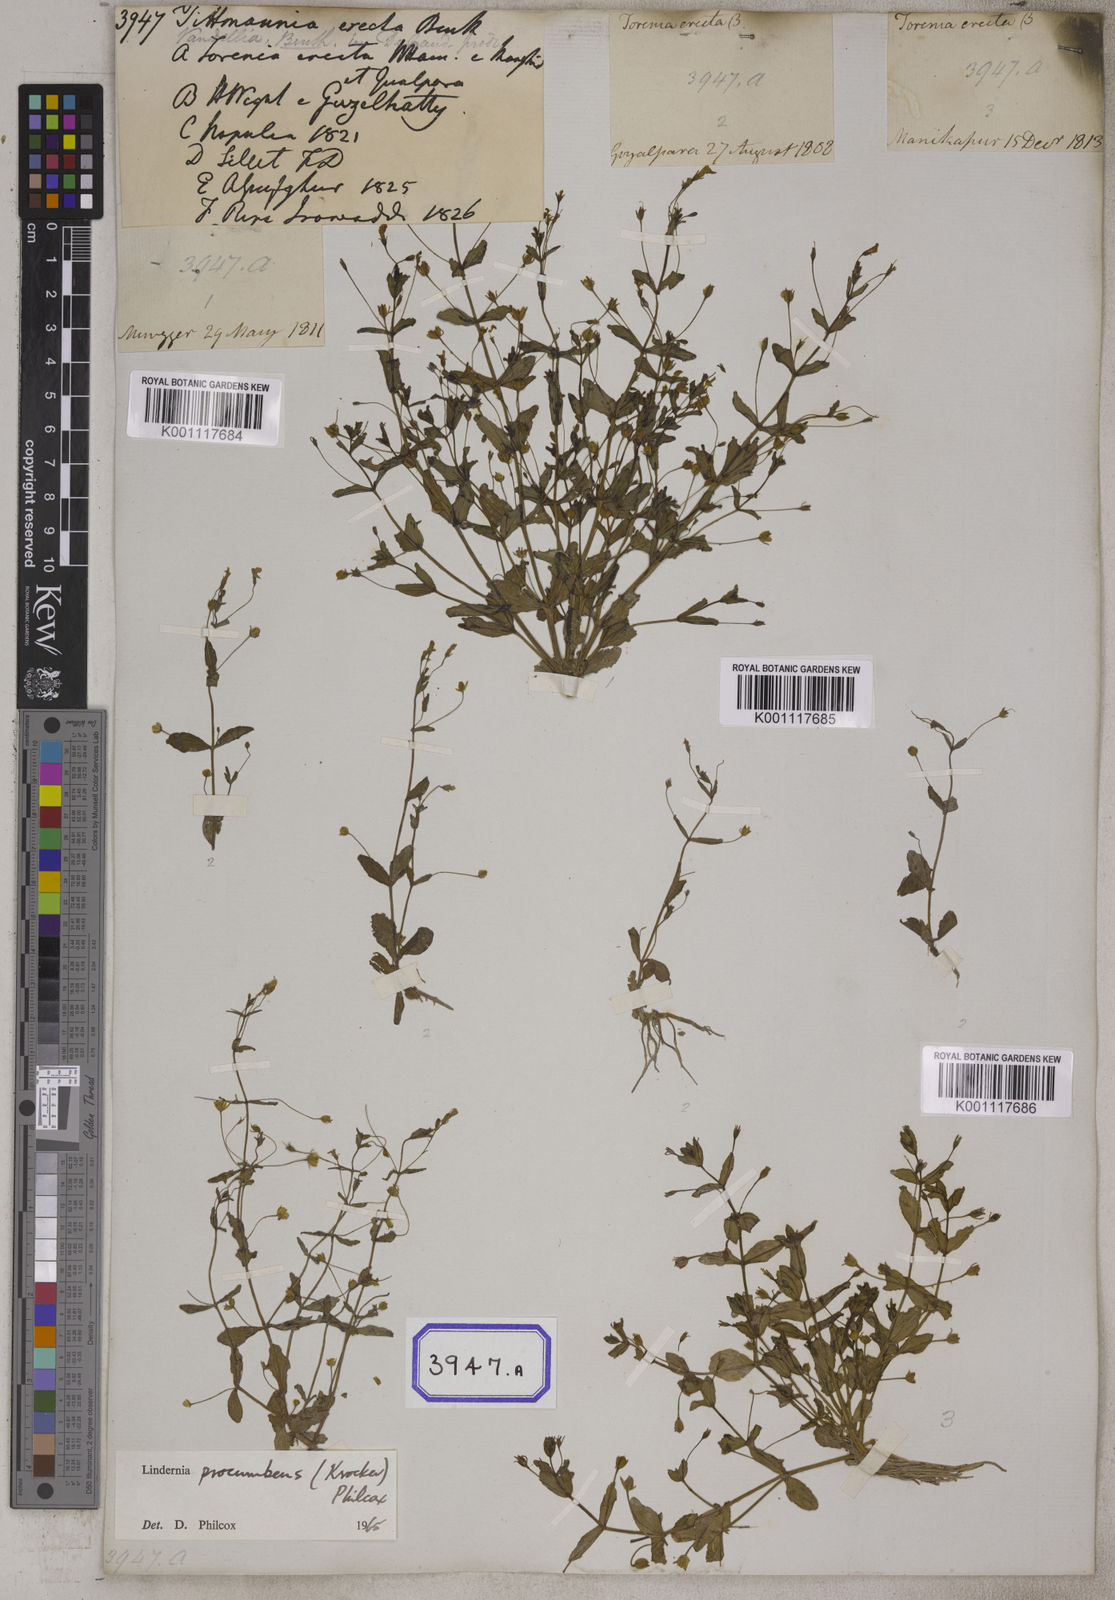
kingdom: Plantae
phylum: Tracheophyta
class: Magnoliopsida
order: Lamiales
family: Linderniaceae
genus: Lindernia
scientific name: Lindernia procumbens
